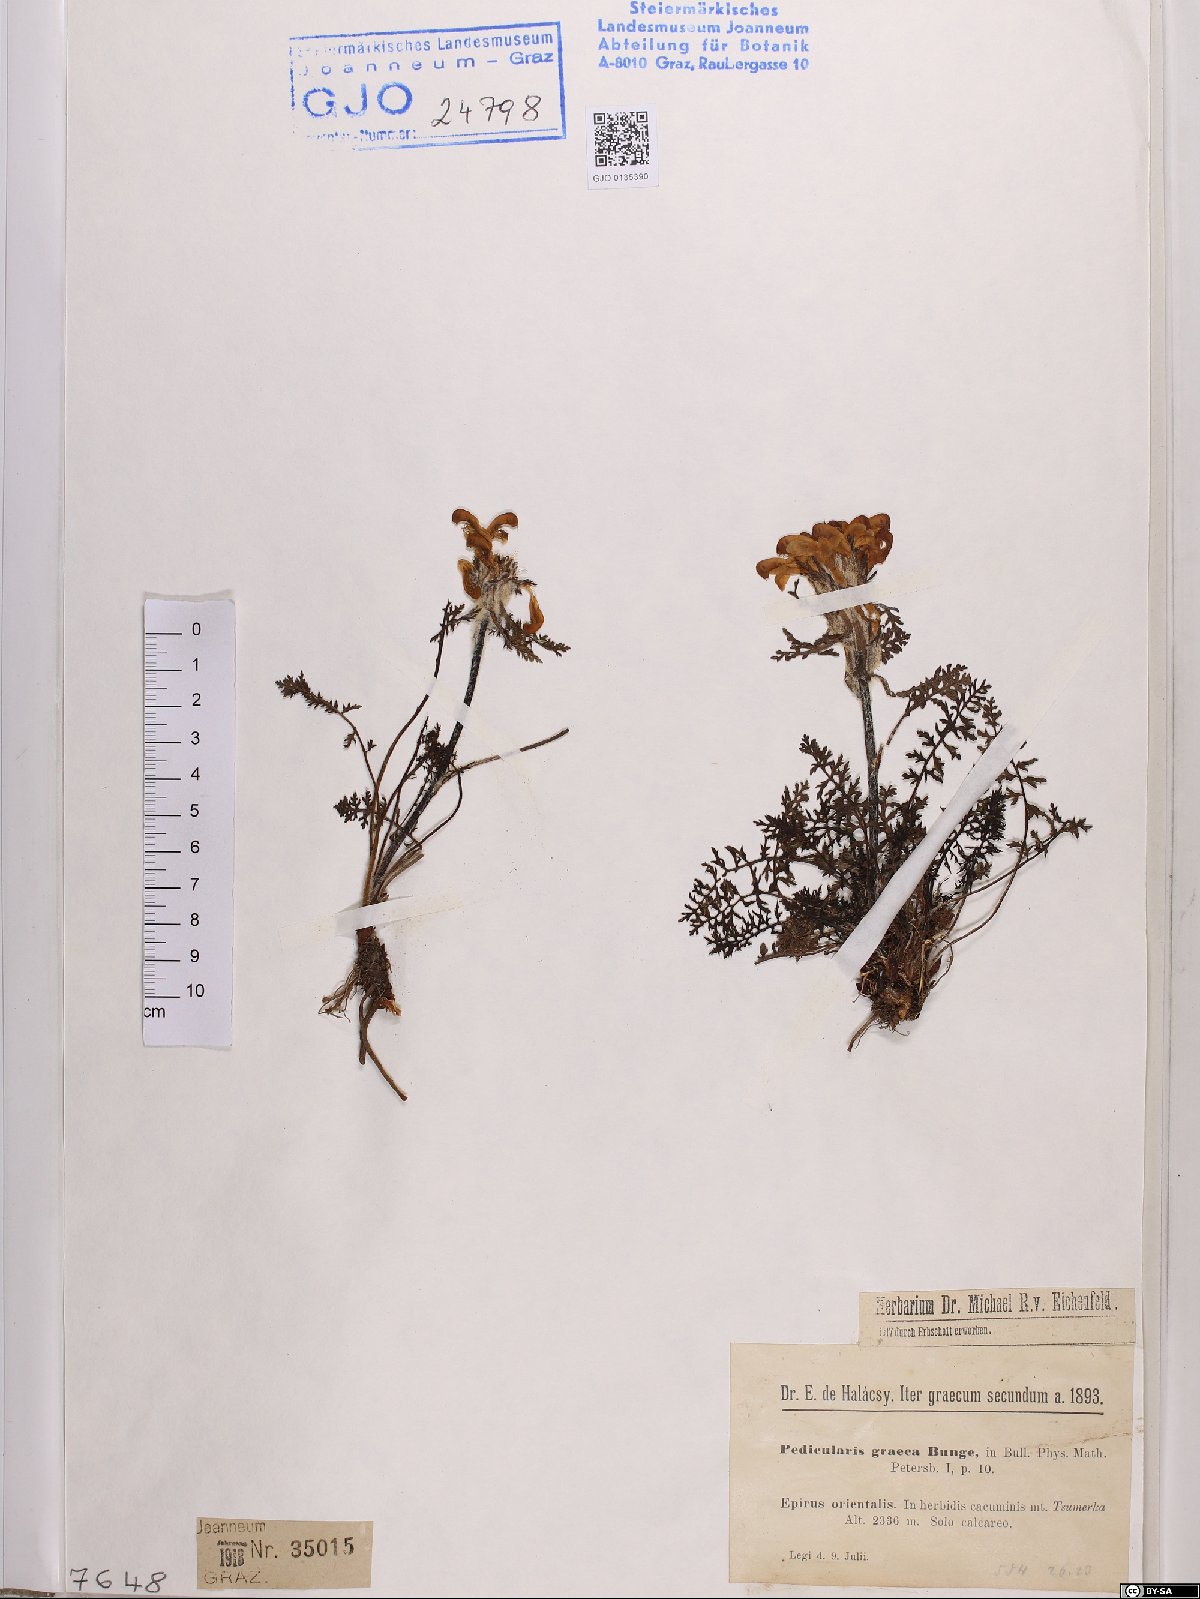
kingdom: Plantae
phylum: Tracheophyta
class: Magnoliopsida
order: Lamiales
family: Orobanchaceae
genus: Pedicularis
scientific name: Pedicularis graeca
